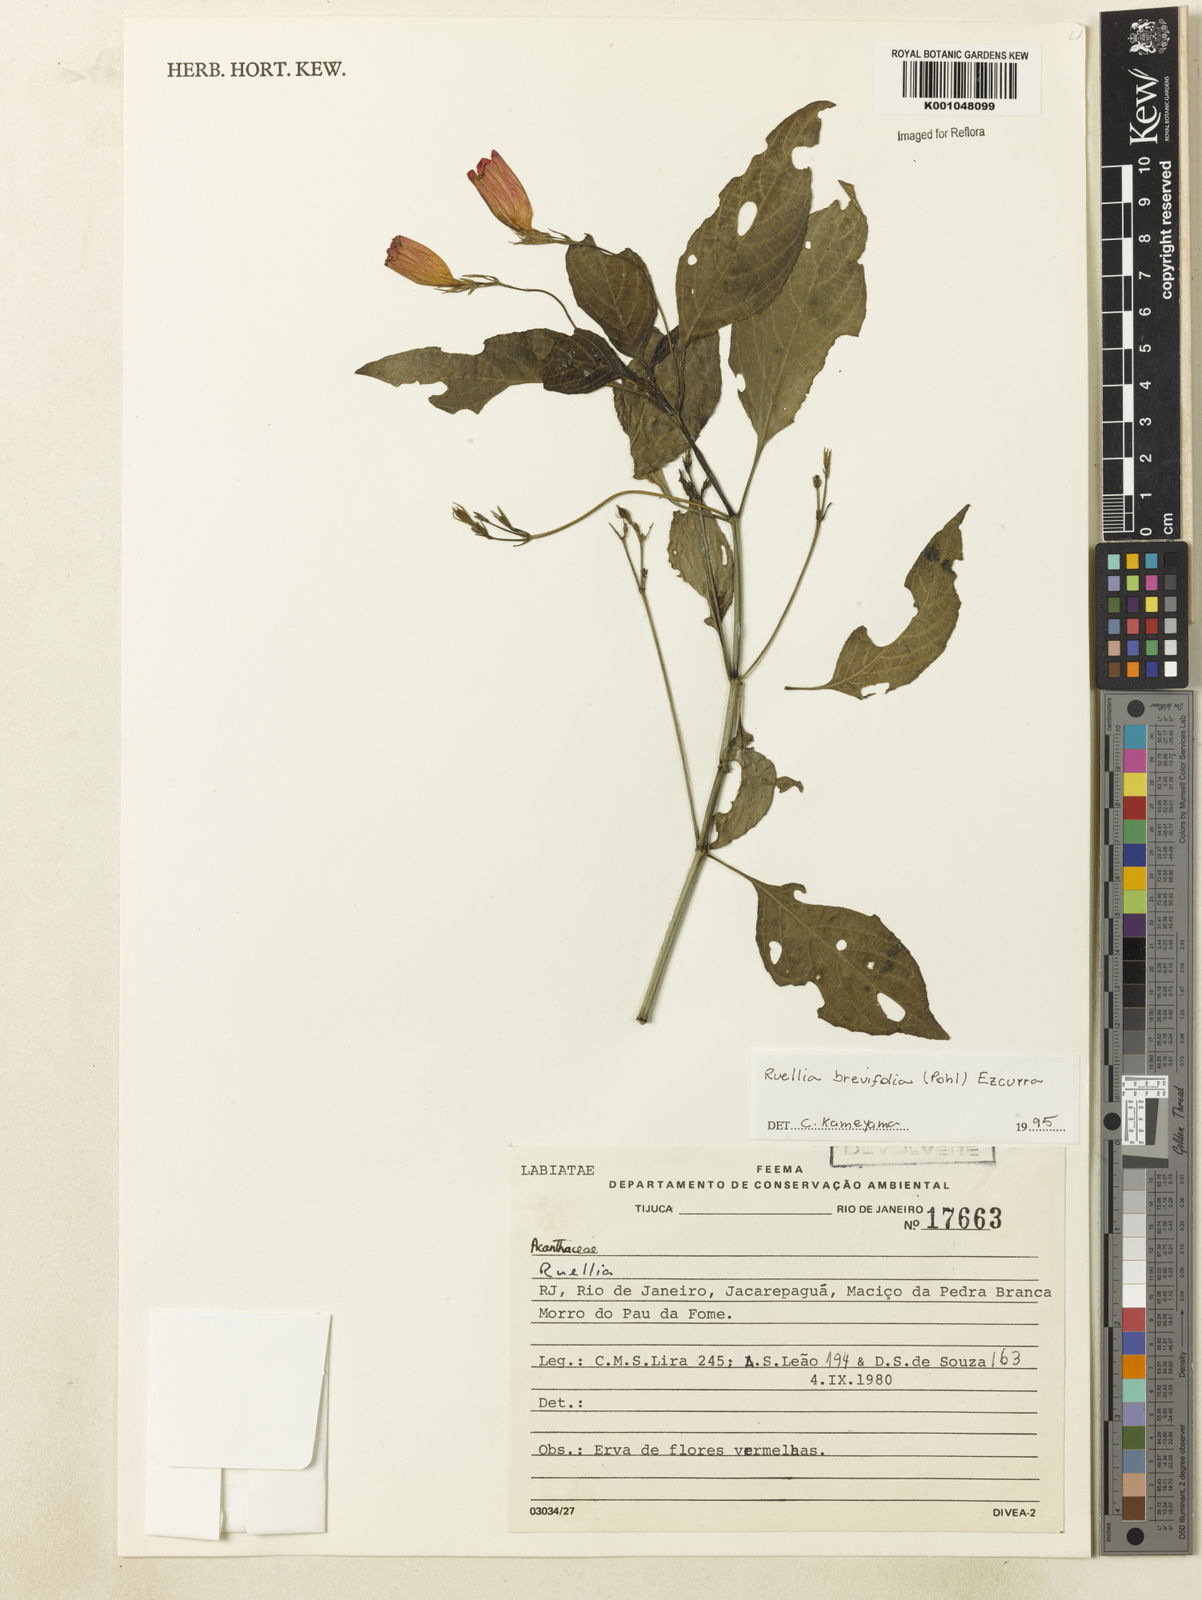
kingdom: Plantae
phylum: Tracheophyta
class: Magnoliopsida
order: Lamiales
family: Acanthaceae
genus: Ruellia
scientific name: Ruellia brevifolia
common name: Tropical wild petunia
